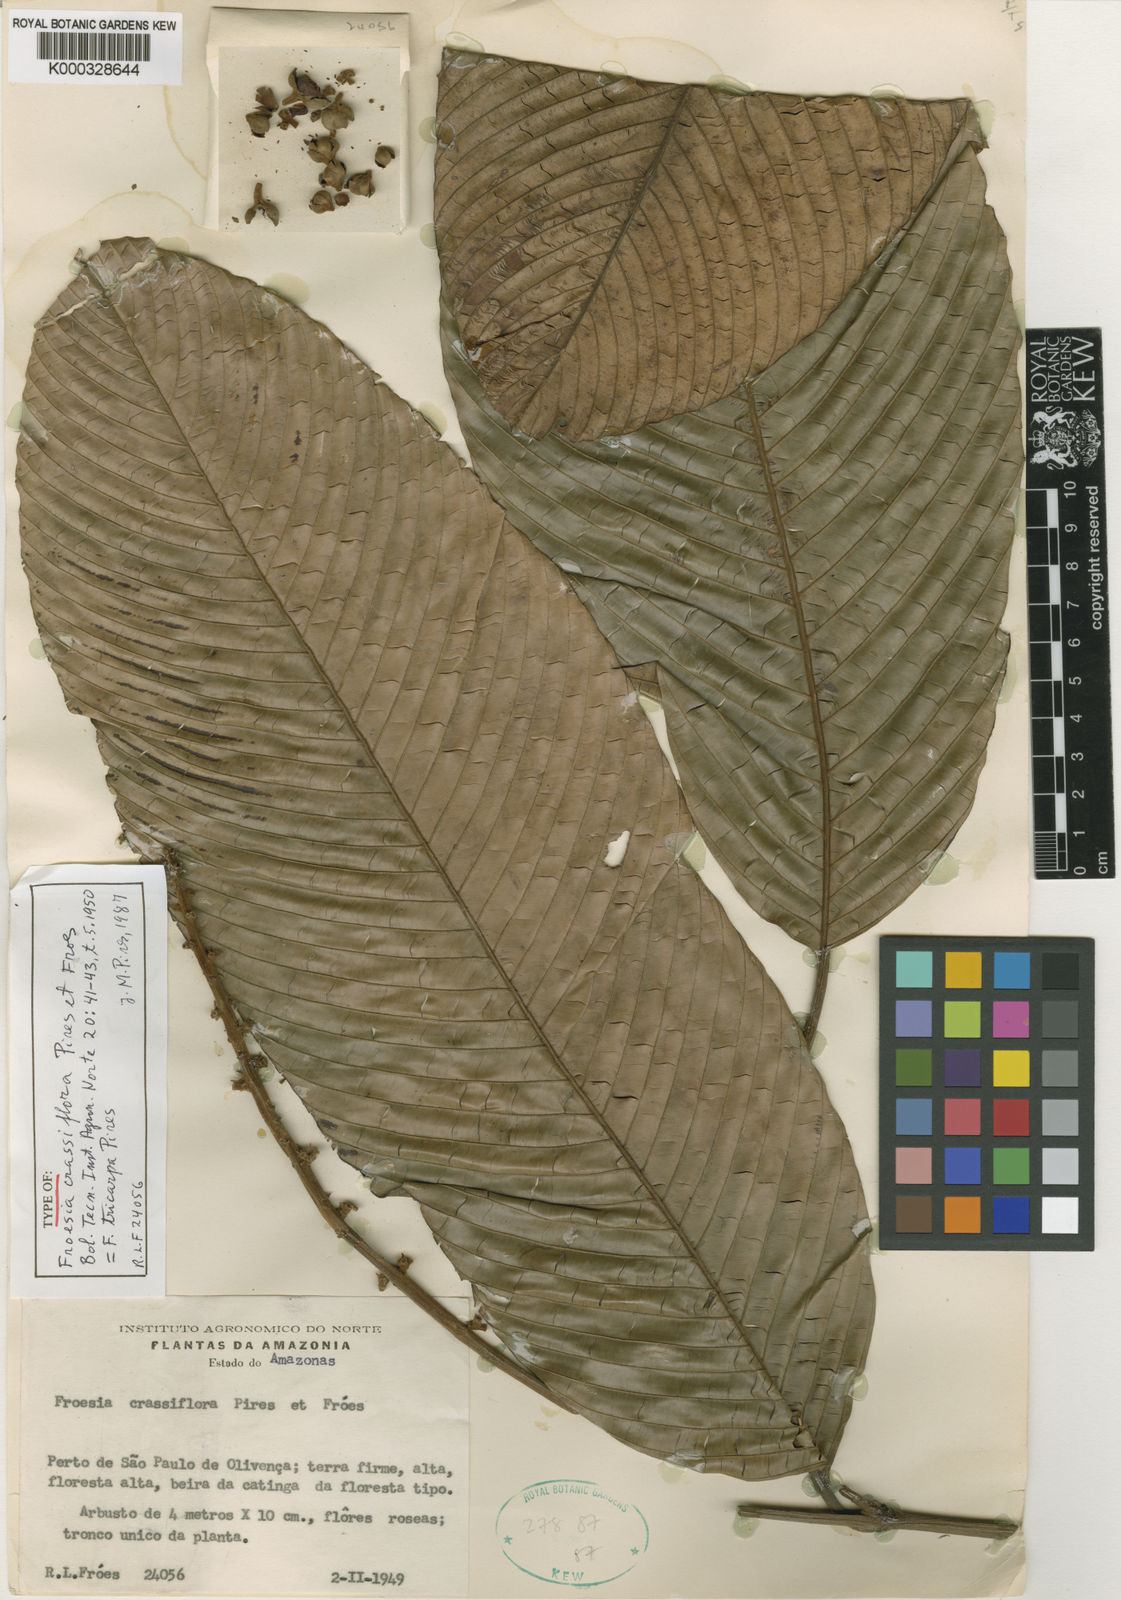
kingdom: Plantae
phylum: Tracheophyta
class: Magnoliopsida
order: Malpighiales
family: Quiinaceae
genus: Froesia
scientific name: Froesia tricarpa
